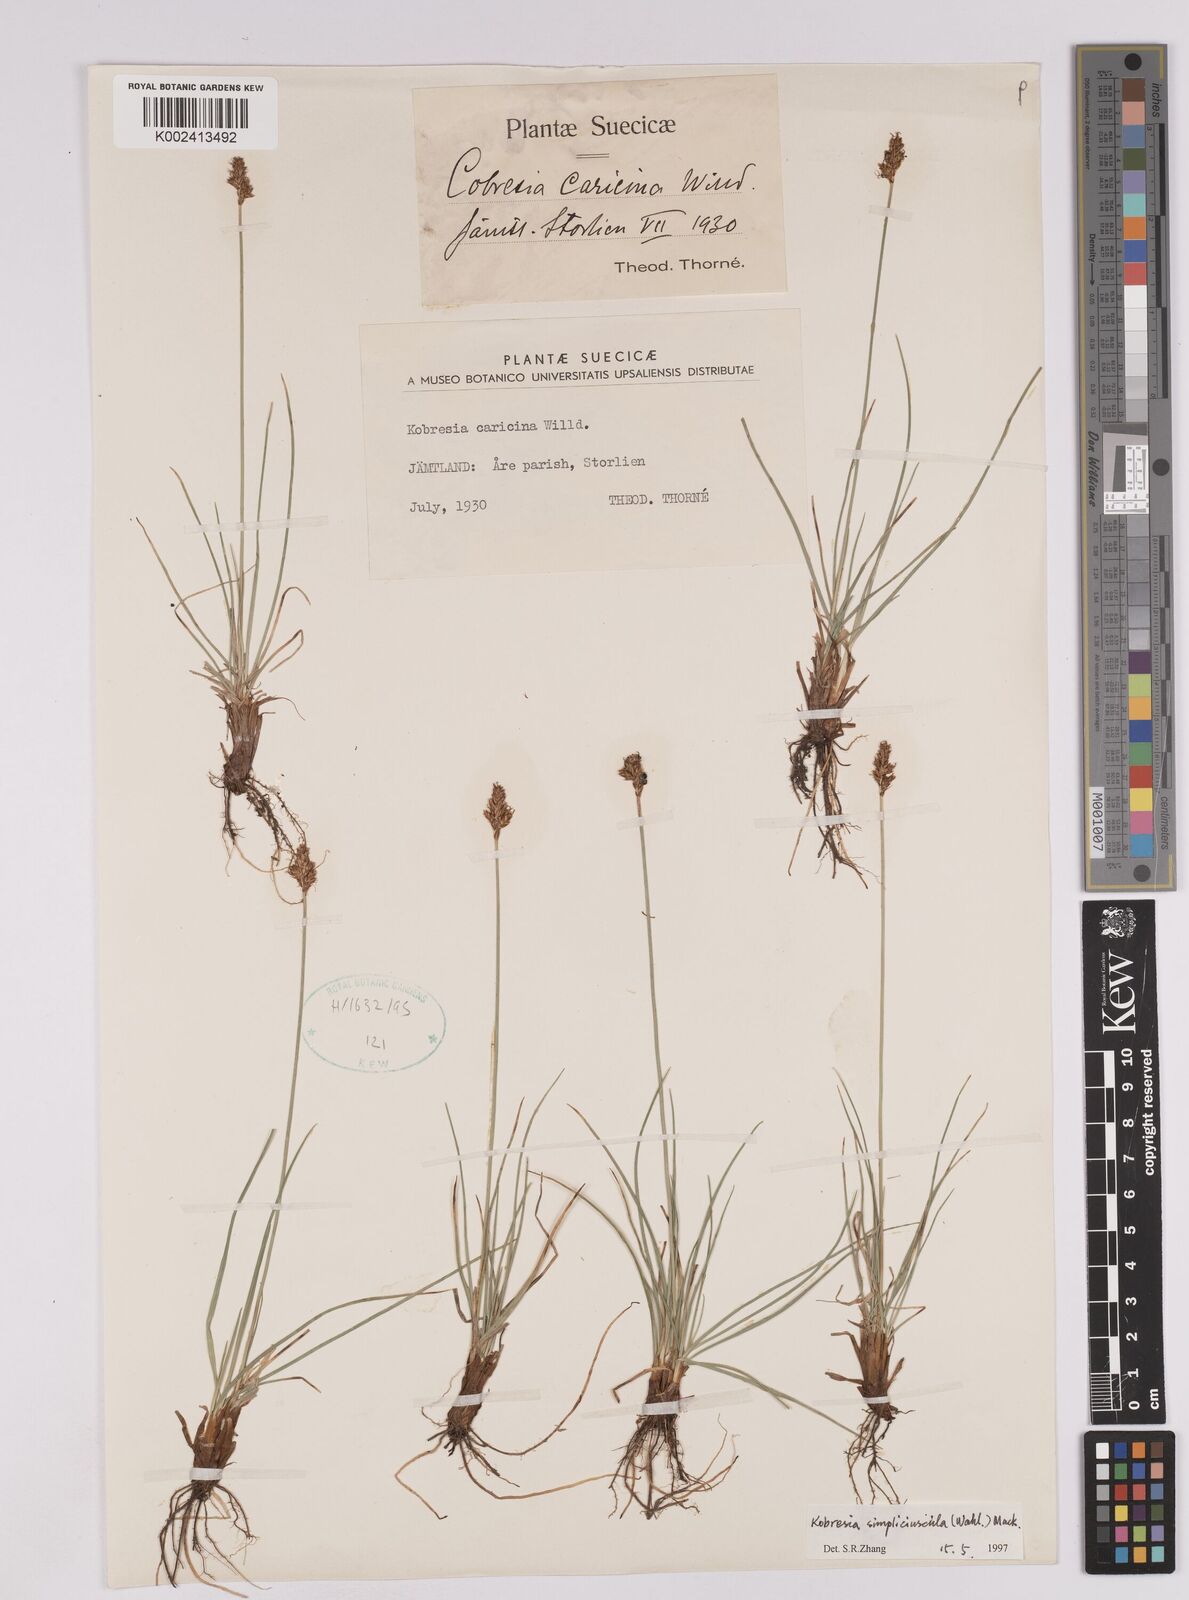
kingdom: Plantae
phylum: Tracheophyta
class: Liliopsida
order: Poales
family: Cyperaceae
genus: Carex
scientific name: Carex simpliciuscula
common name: Simple bog sedge
